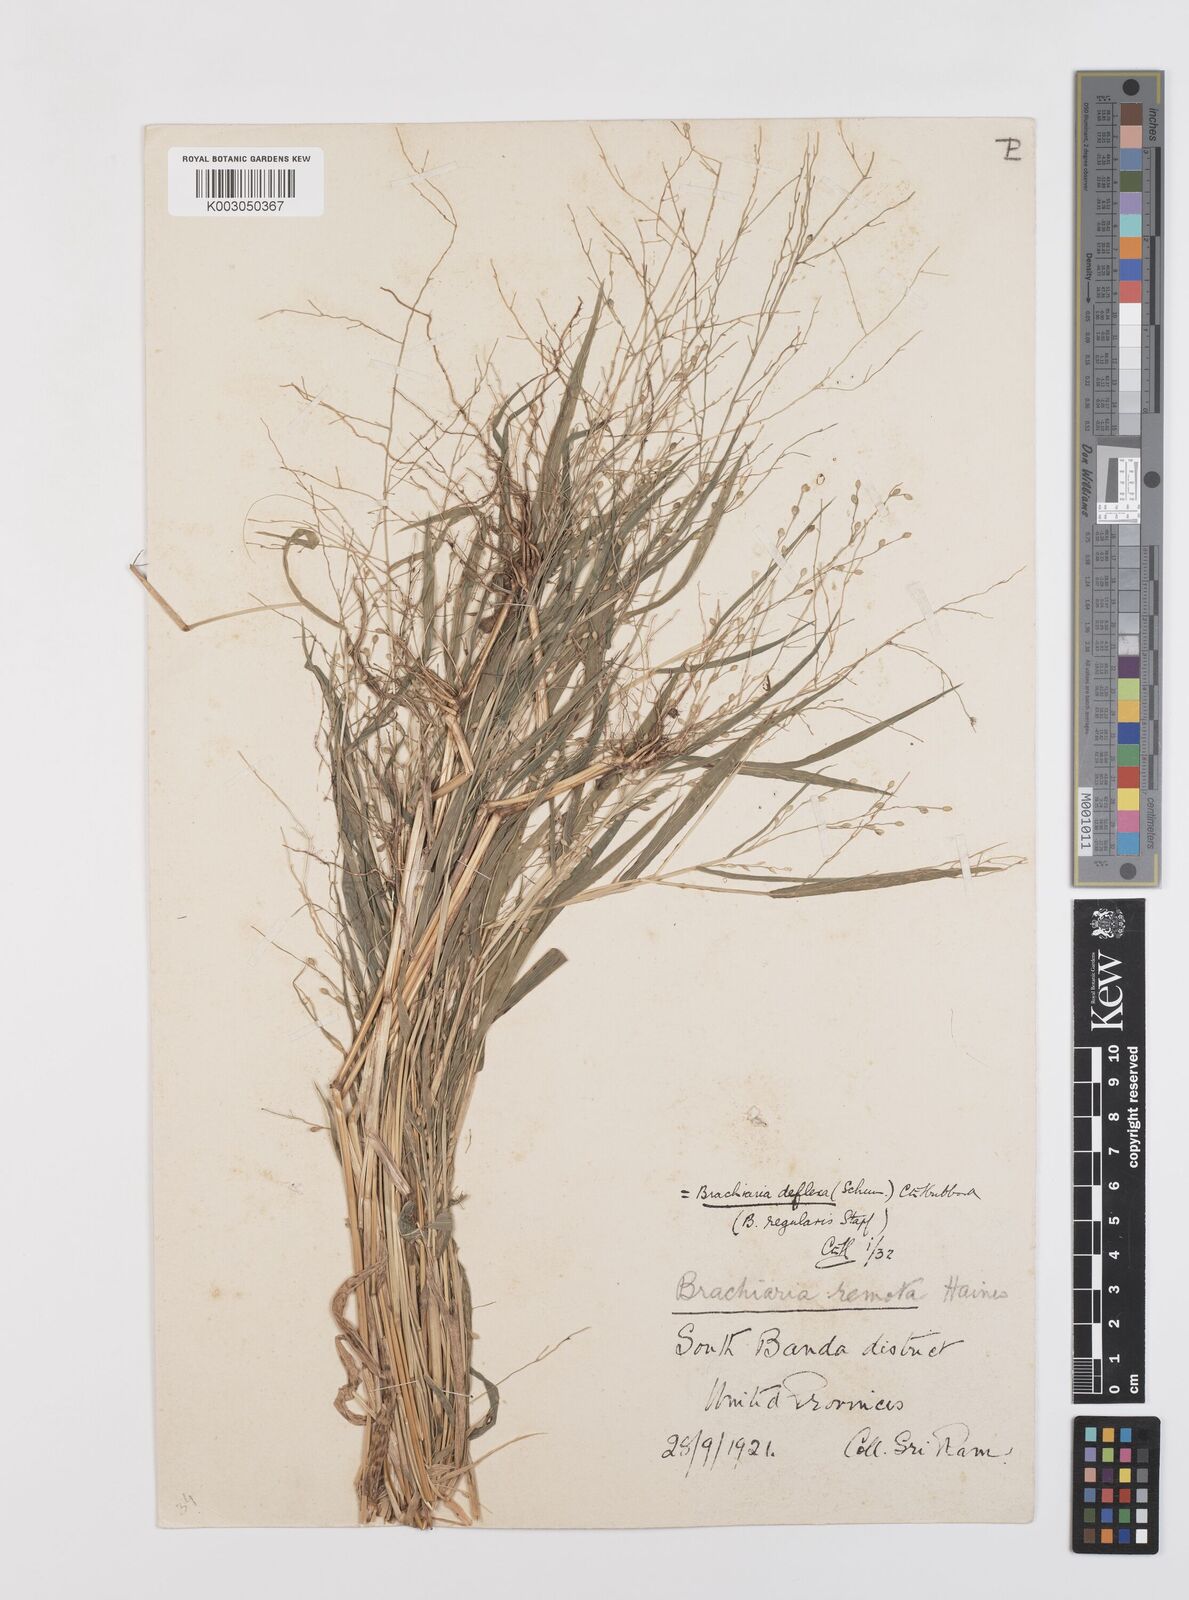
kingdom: Plantae
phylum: Tracheophyta
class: Liliopsida
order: Poales
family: Poaceae
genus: Urochloa
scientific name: Urochloa deflexa
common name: Guinea millet
